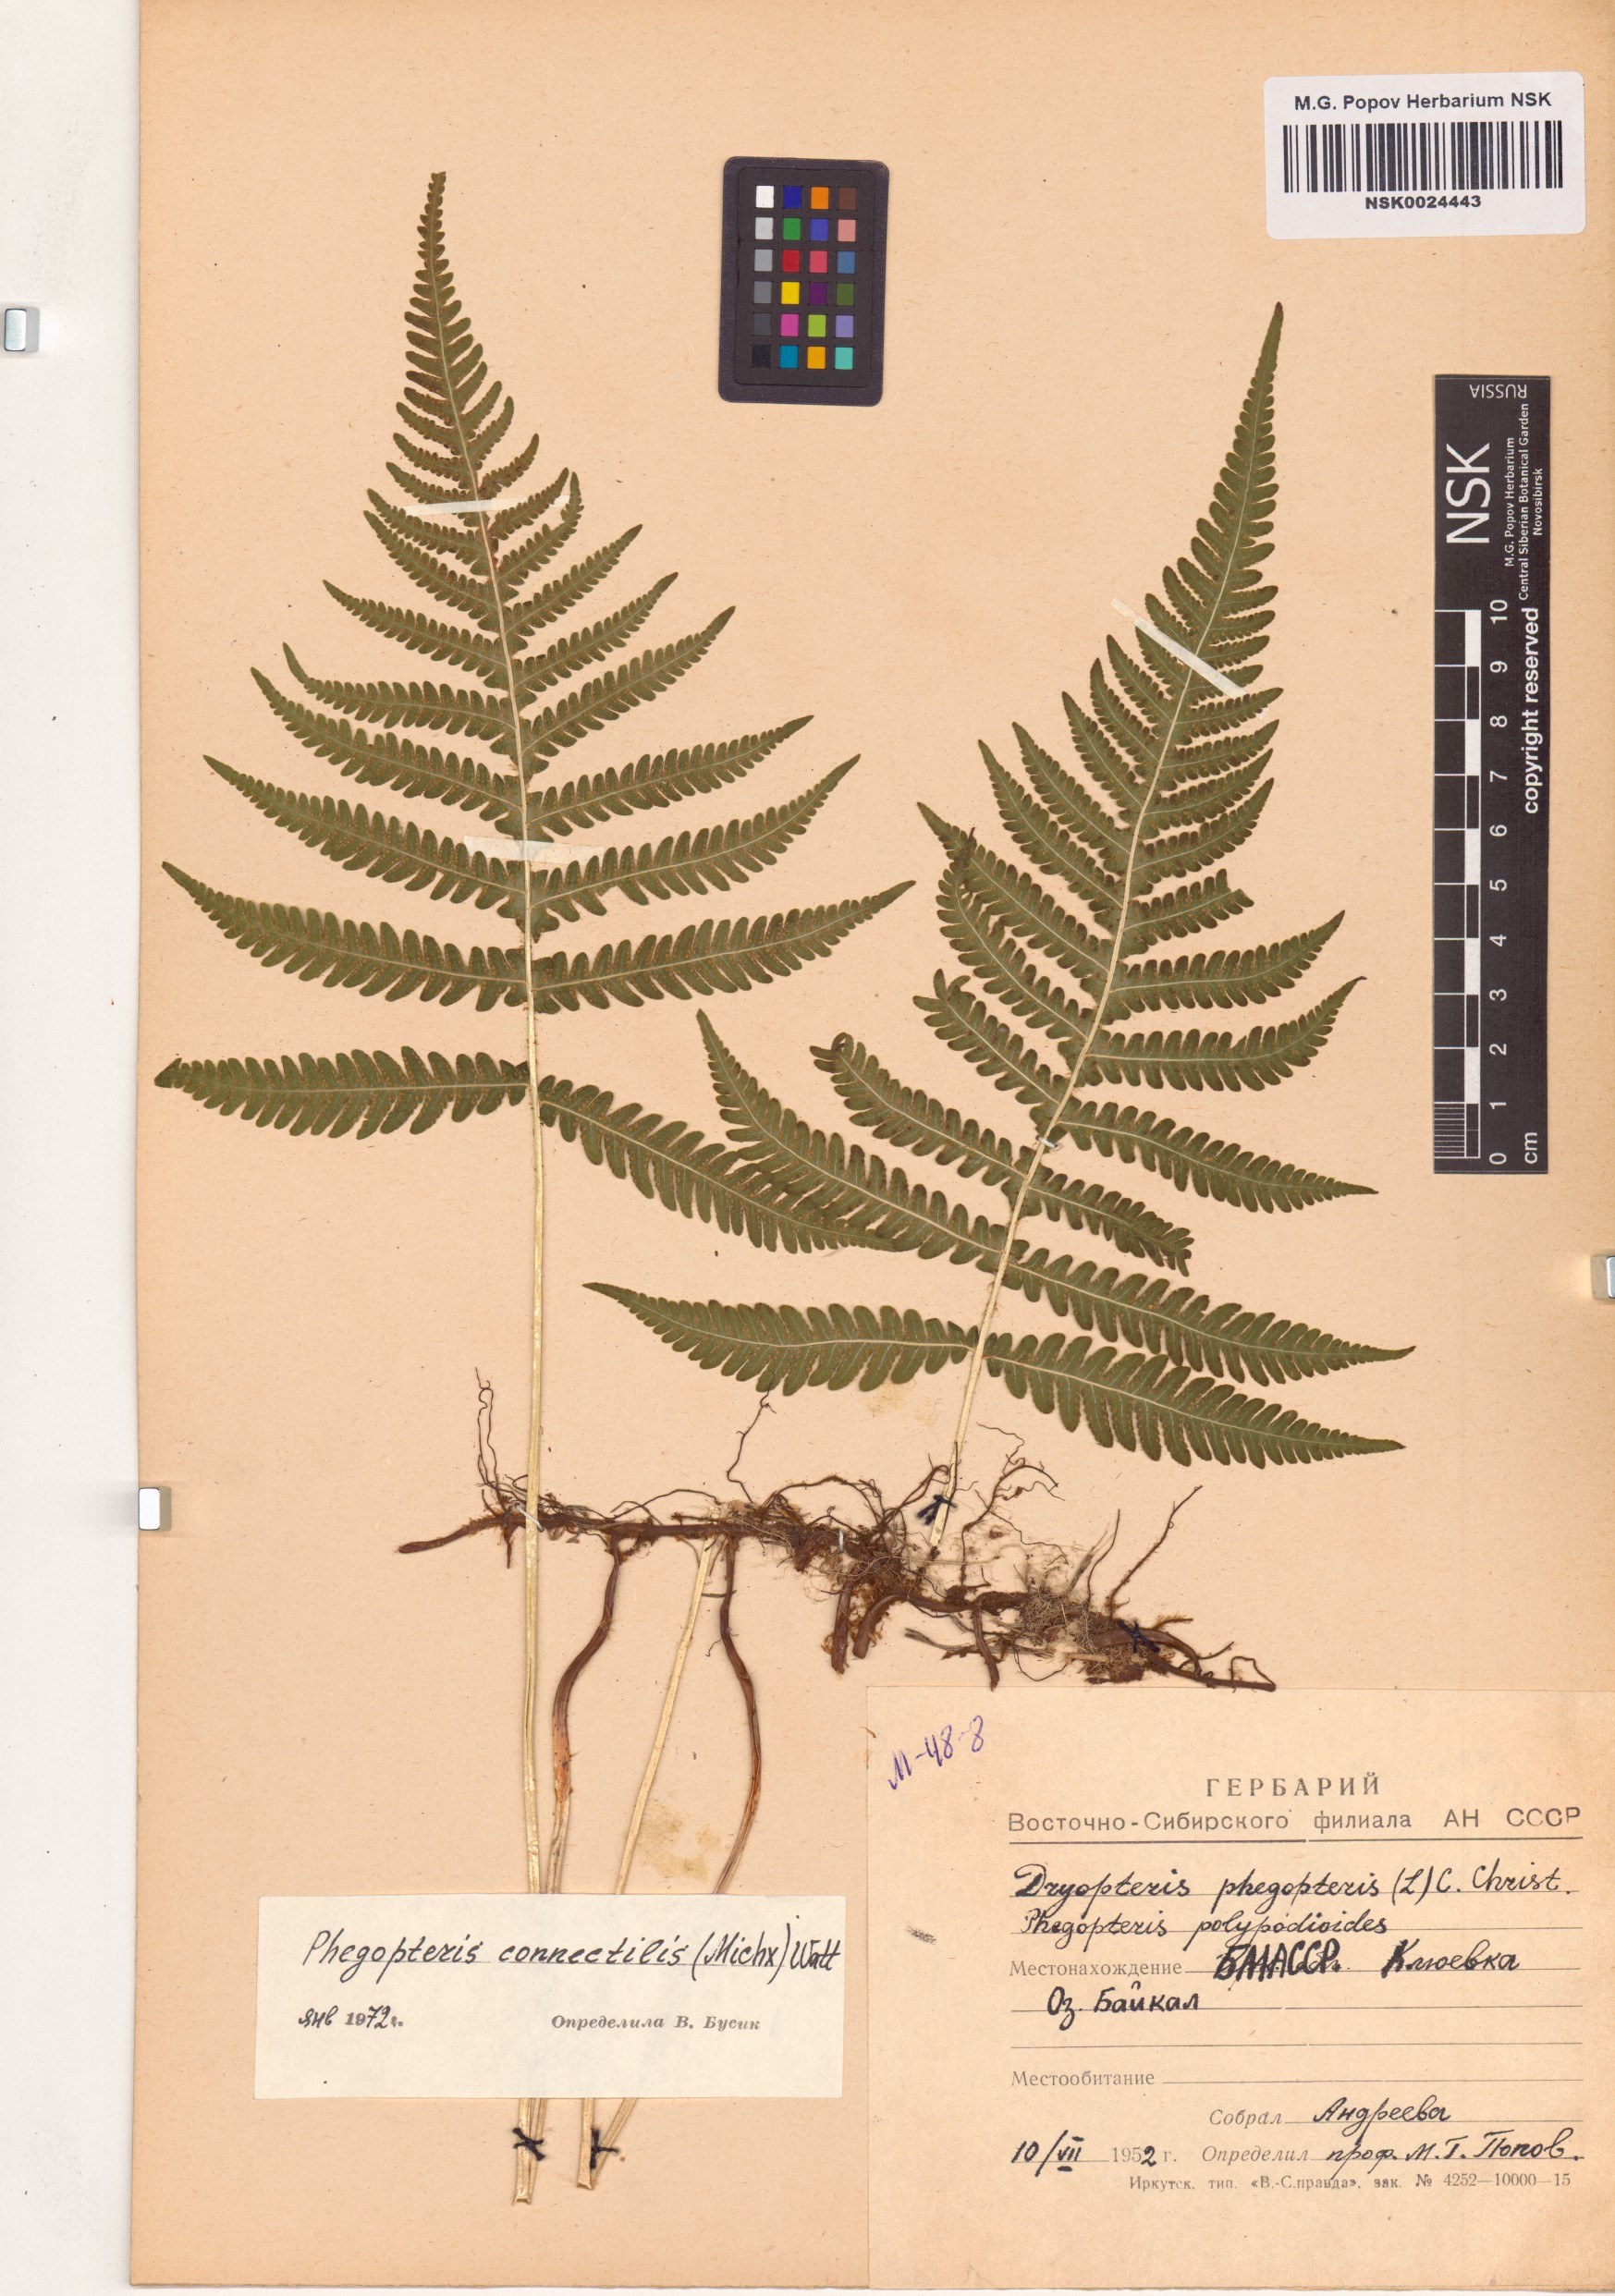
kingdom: Plantae
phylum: Tracheophyta
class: Polypodiopsida
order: Polypodiales
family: Thelypteridaceae
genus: Phegopteris
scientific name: Phegopteris connectilis
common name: Beech fern
